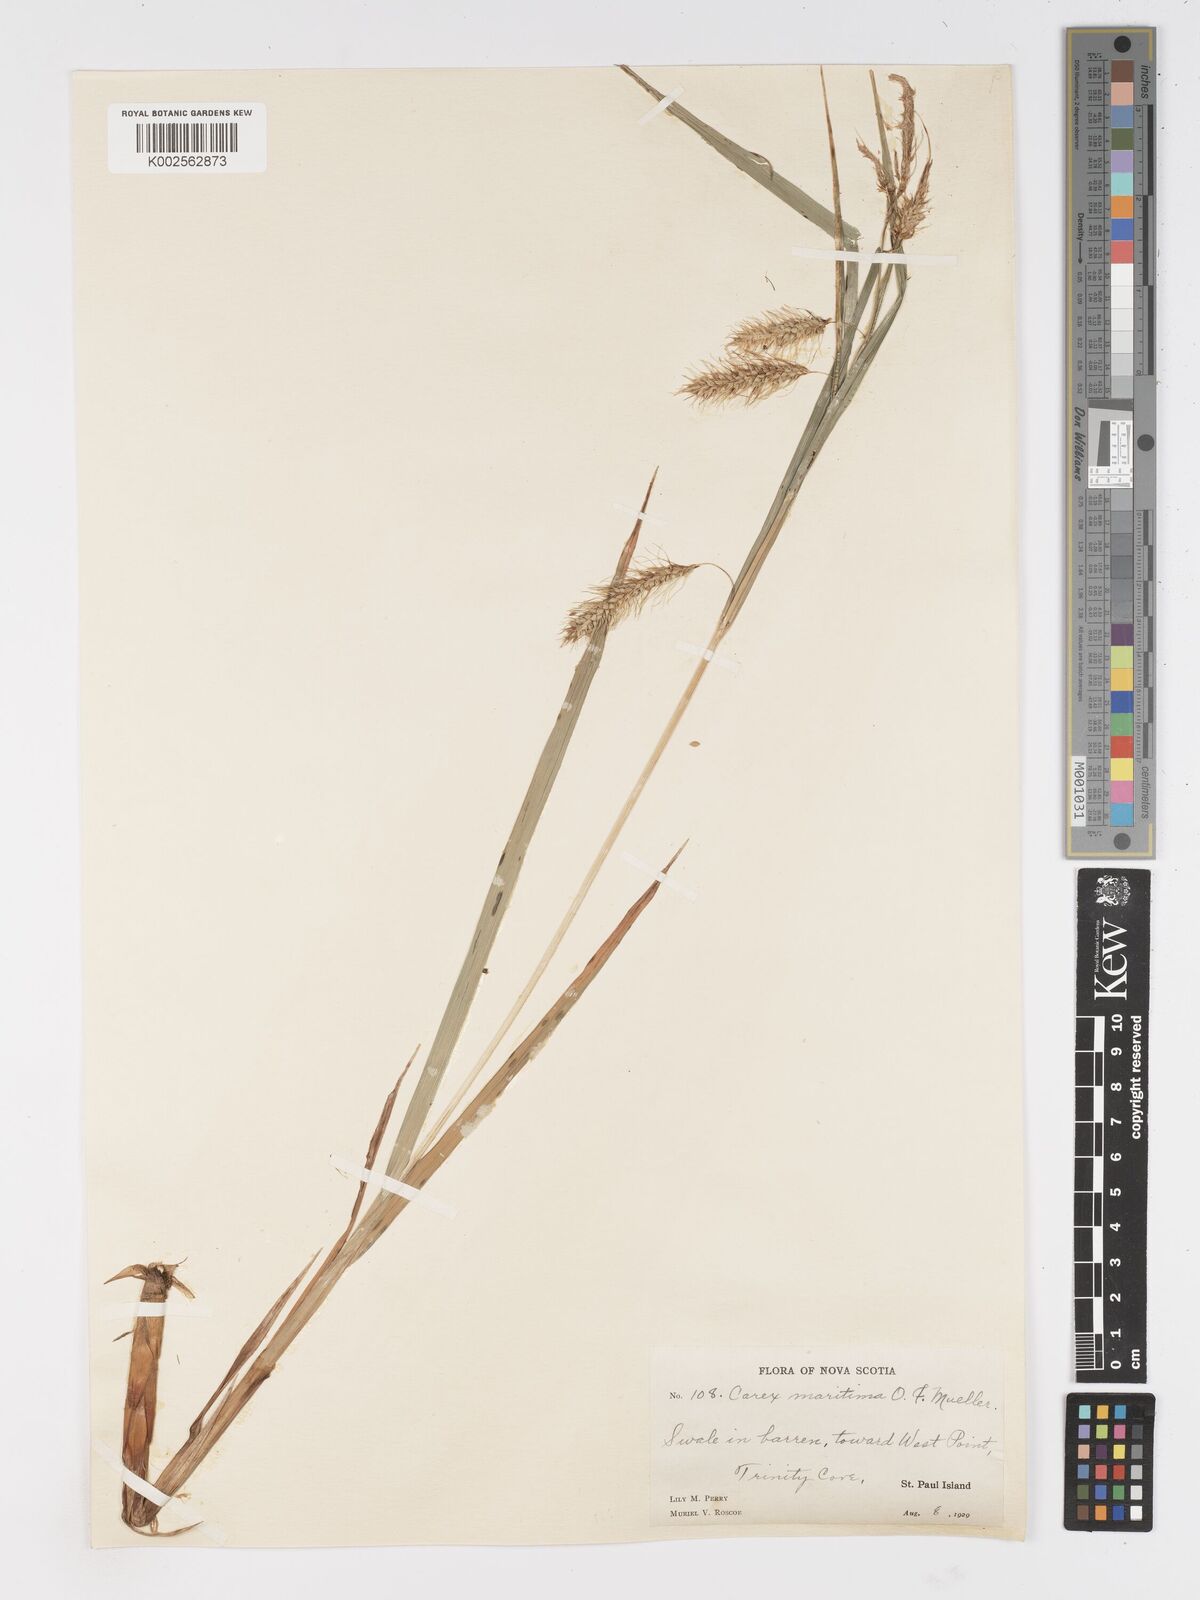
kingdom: Plantae
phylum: Tracheophyta
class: Liliopsida
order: Poales
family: Cyperaceae
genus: Carex
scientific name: Carex paleacea
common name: Chaffy sedge
